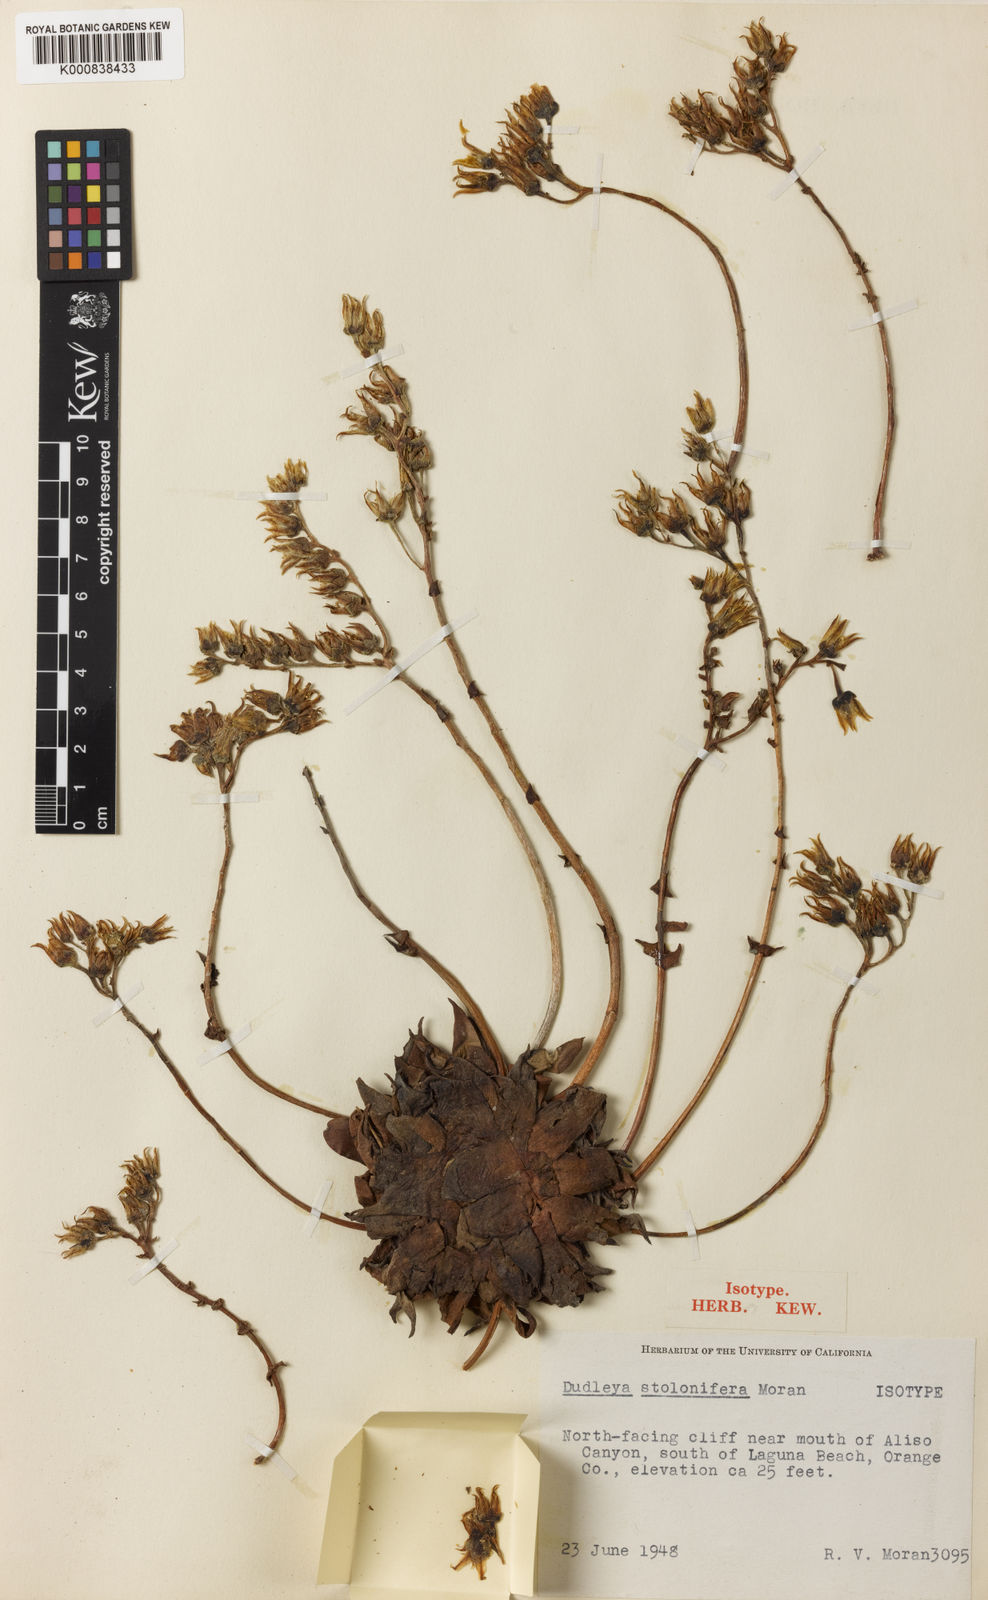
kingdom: Plantae
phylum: Tracheophyta
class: Magnoliopsida
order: Saxifragales
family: Crassulaceae
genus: Dudleya
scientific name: Dudleya stolonifera
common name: Laguna beach dudleya
